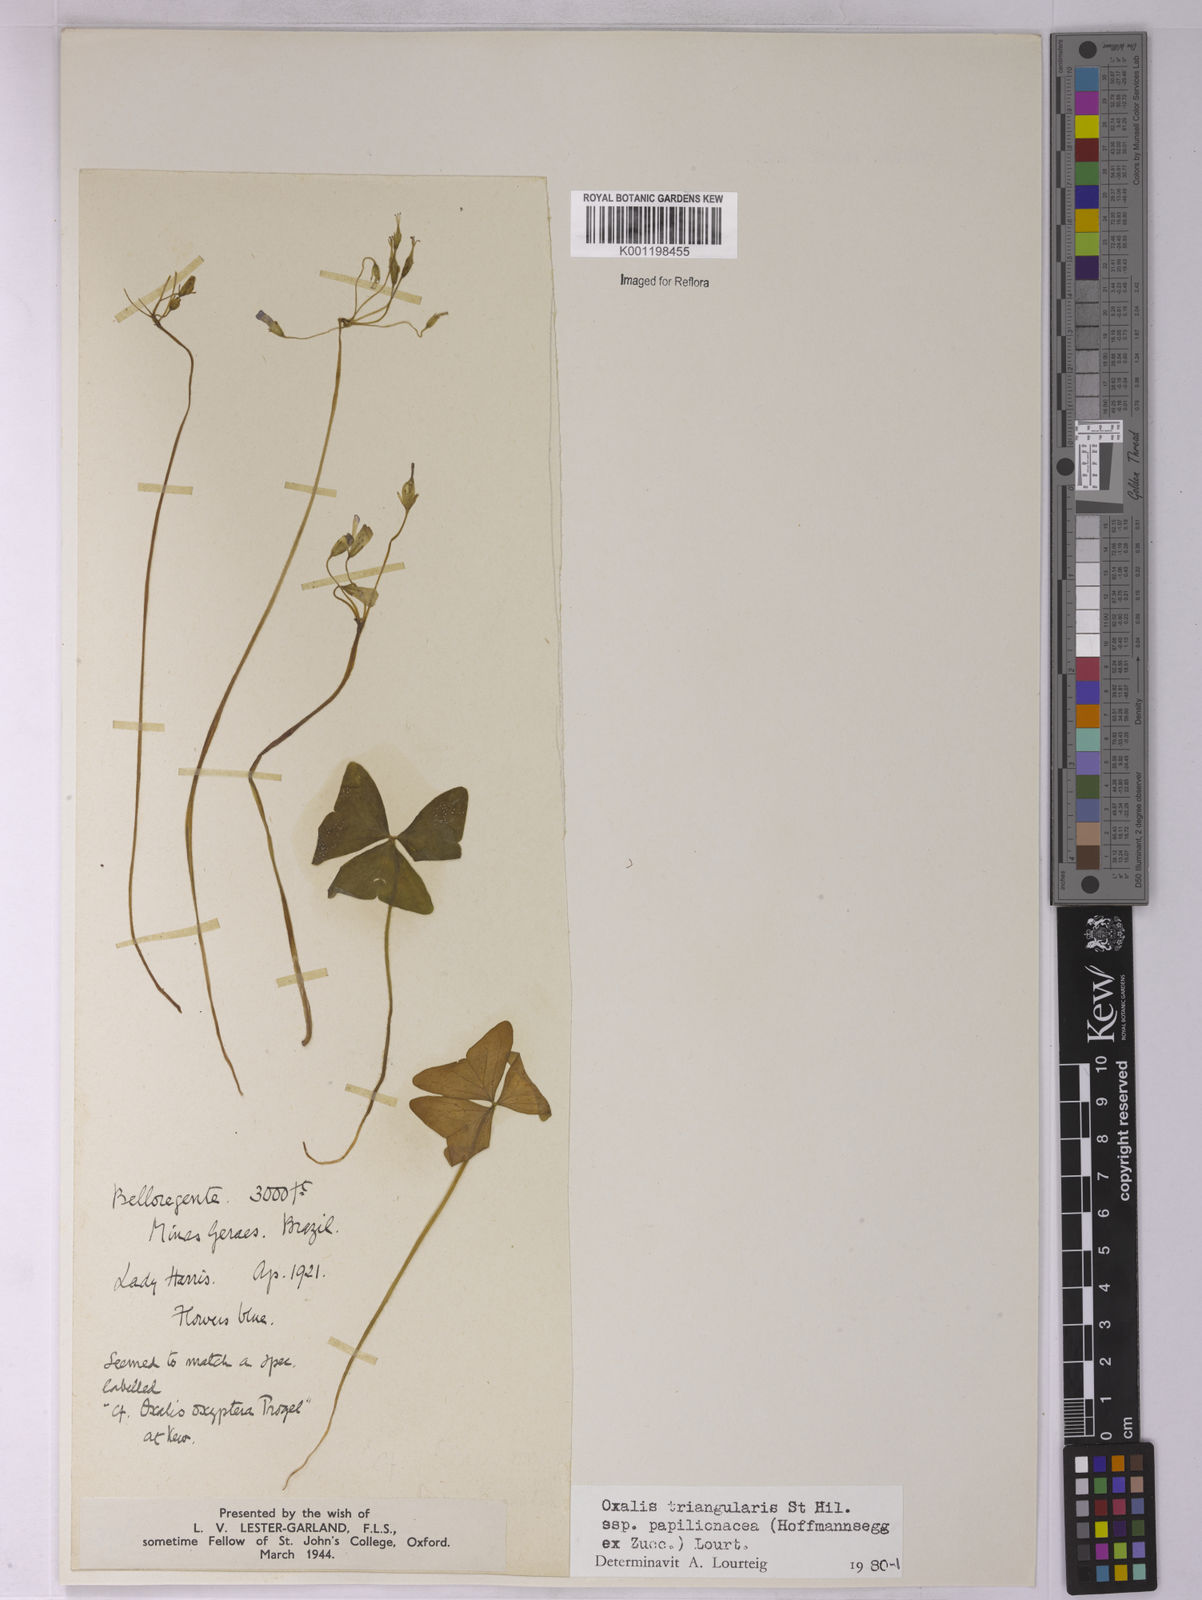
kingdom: Plantae
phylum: Tracheophyta
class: Magnoliopsida
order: Oxalidales
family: Oxalidaceae
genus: Oxalis
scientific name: Oxalis triangularis
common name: Wood sorrel
